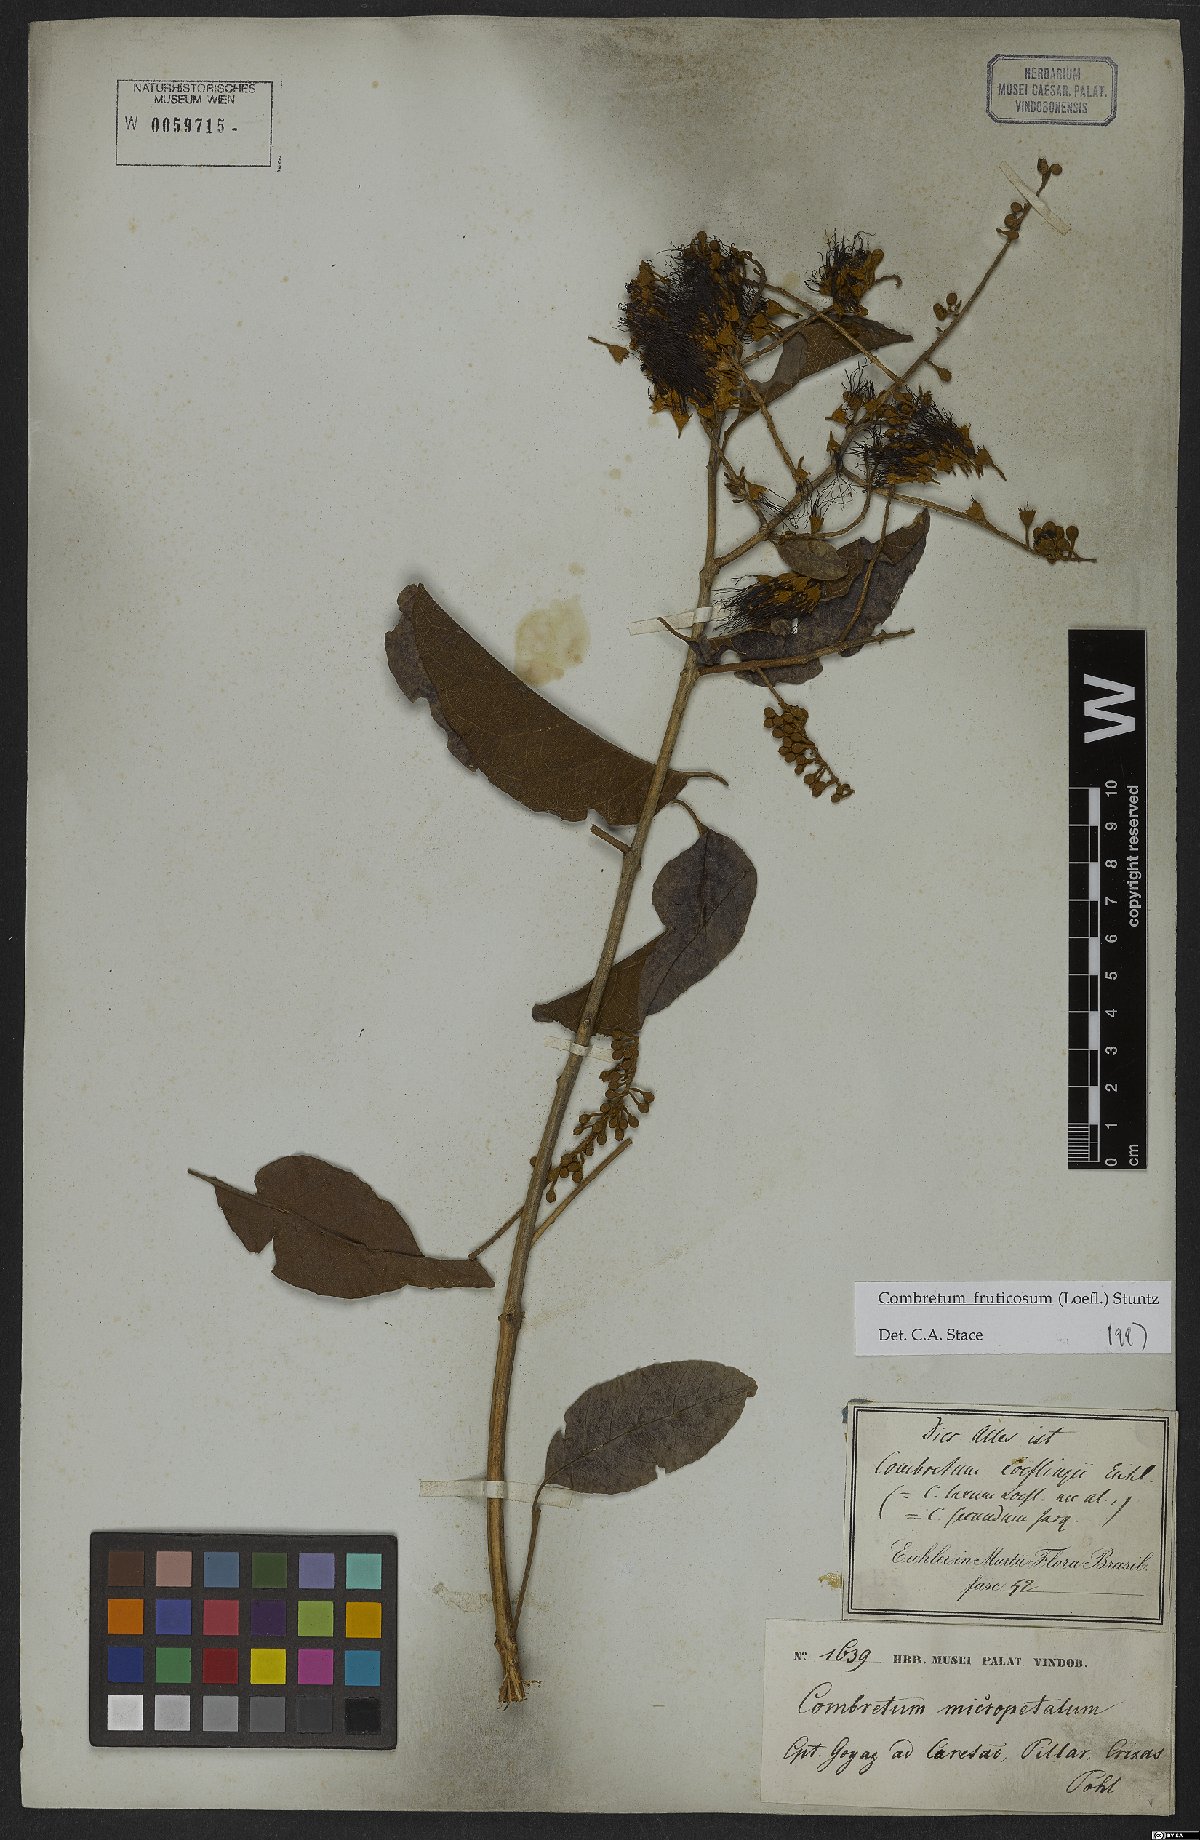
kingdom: Plantae
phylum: Tracheophyta
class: Magnoliopsida
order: Myrtales
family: Combretaceae
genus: Combretum
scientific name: Combretum fruticosum
